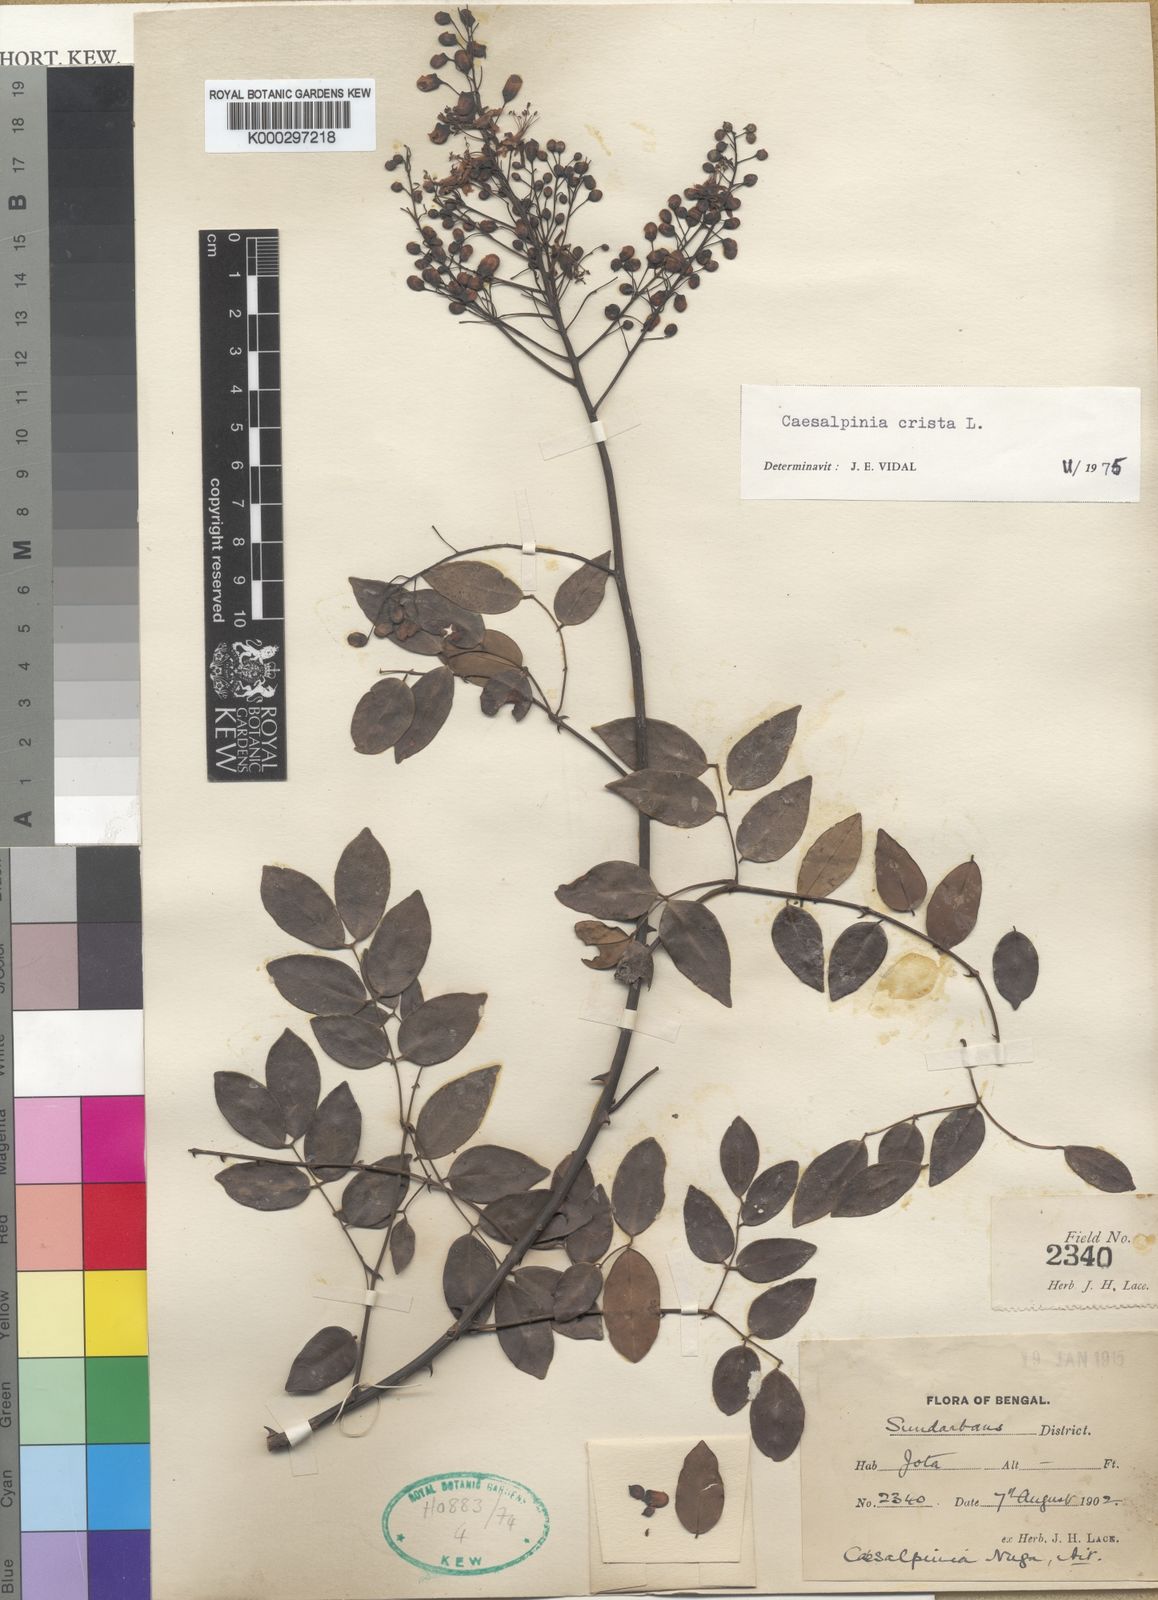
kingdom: Plantae
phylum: Tracheophyta
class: Magnoliopsida
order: Fabales
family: Fabaceae
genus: Caesalpinia
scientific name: Caesalpinia Ticanto crista
